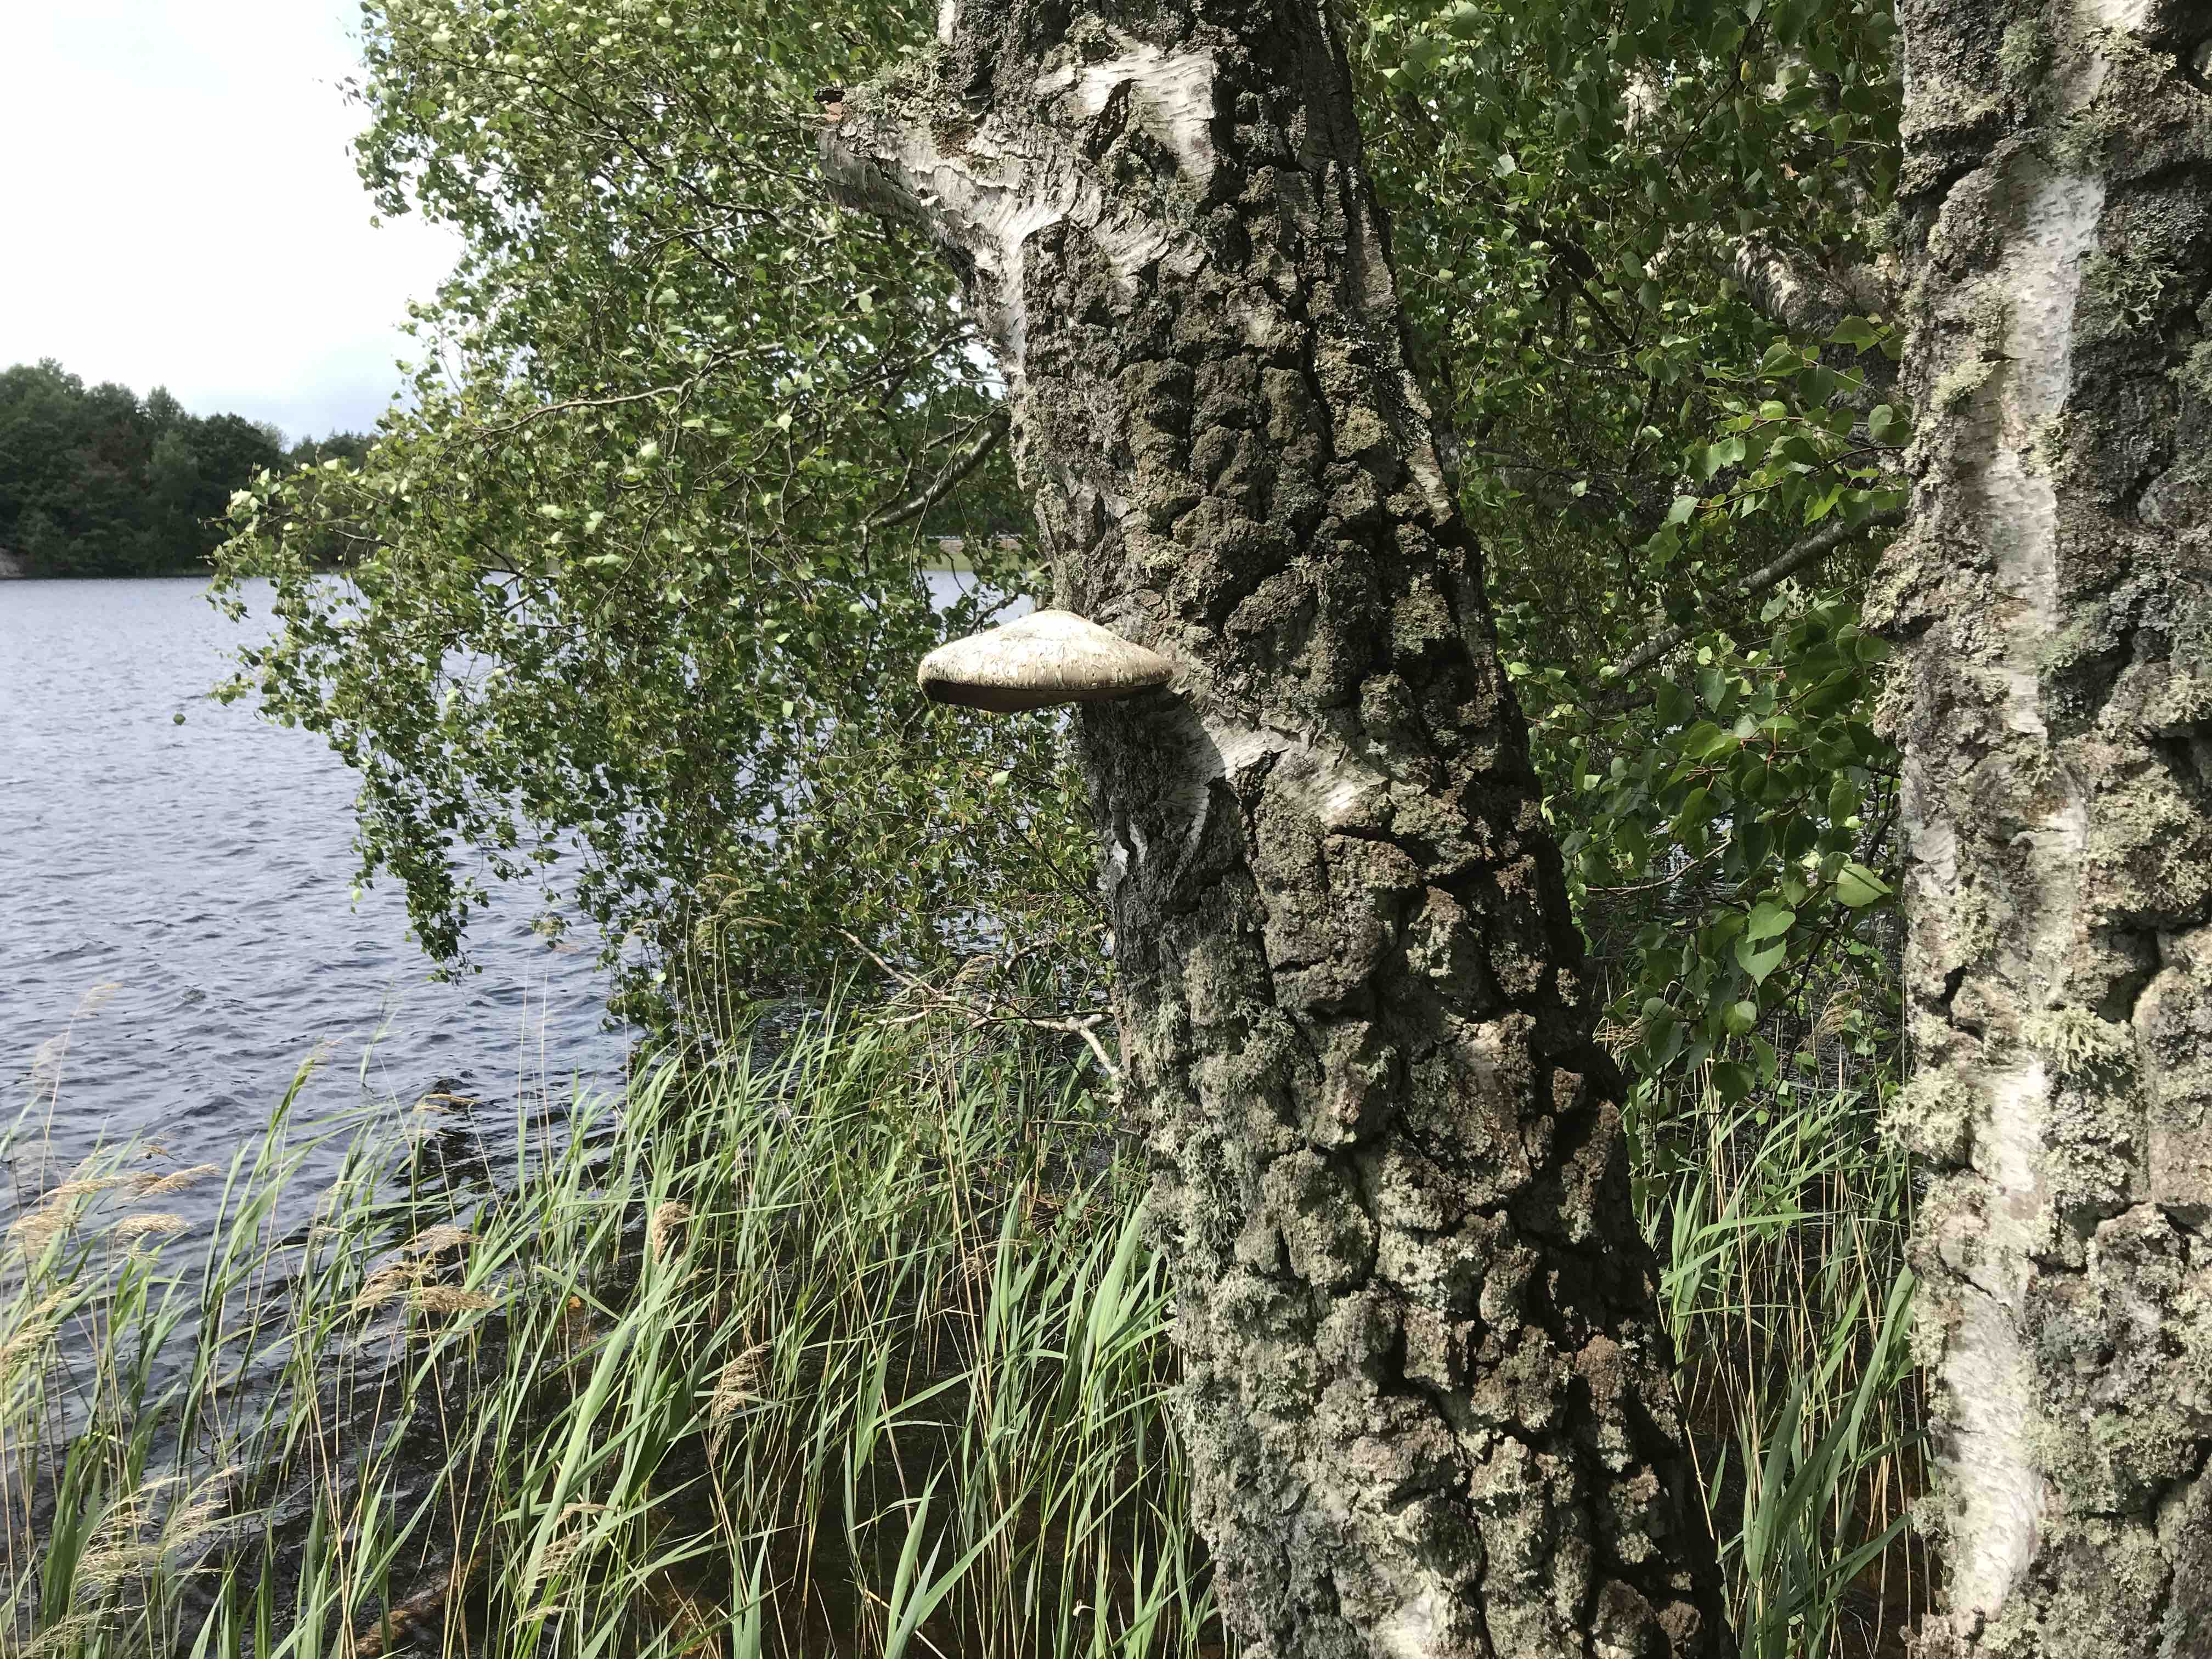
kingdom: Fungi
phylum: Basidiomycota
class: Agaricomycetes
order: Polyporales
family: Fomitopsidaceae
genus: Fomitopsis
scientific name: Fomitopsis betulina
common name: birkeporesvamp
